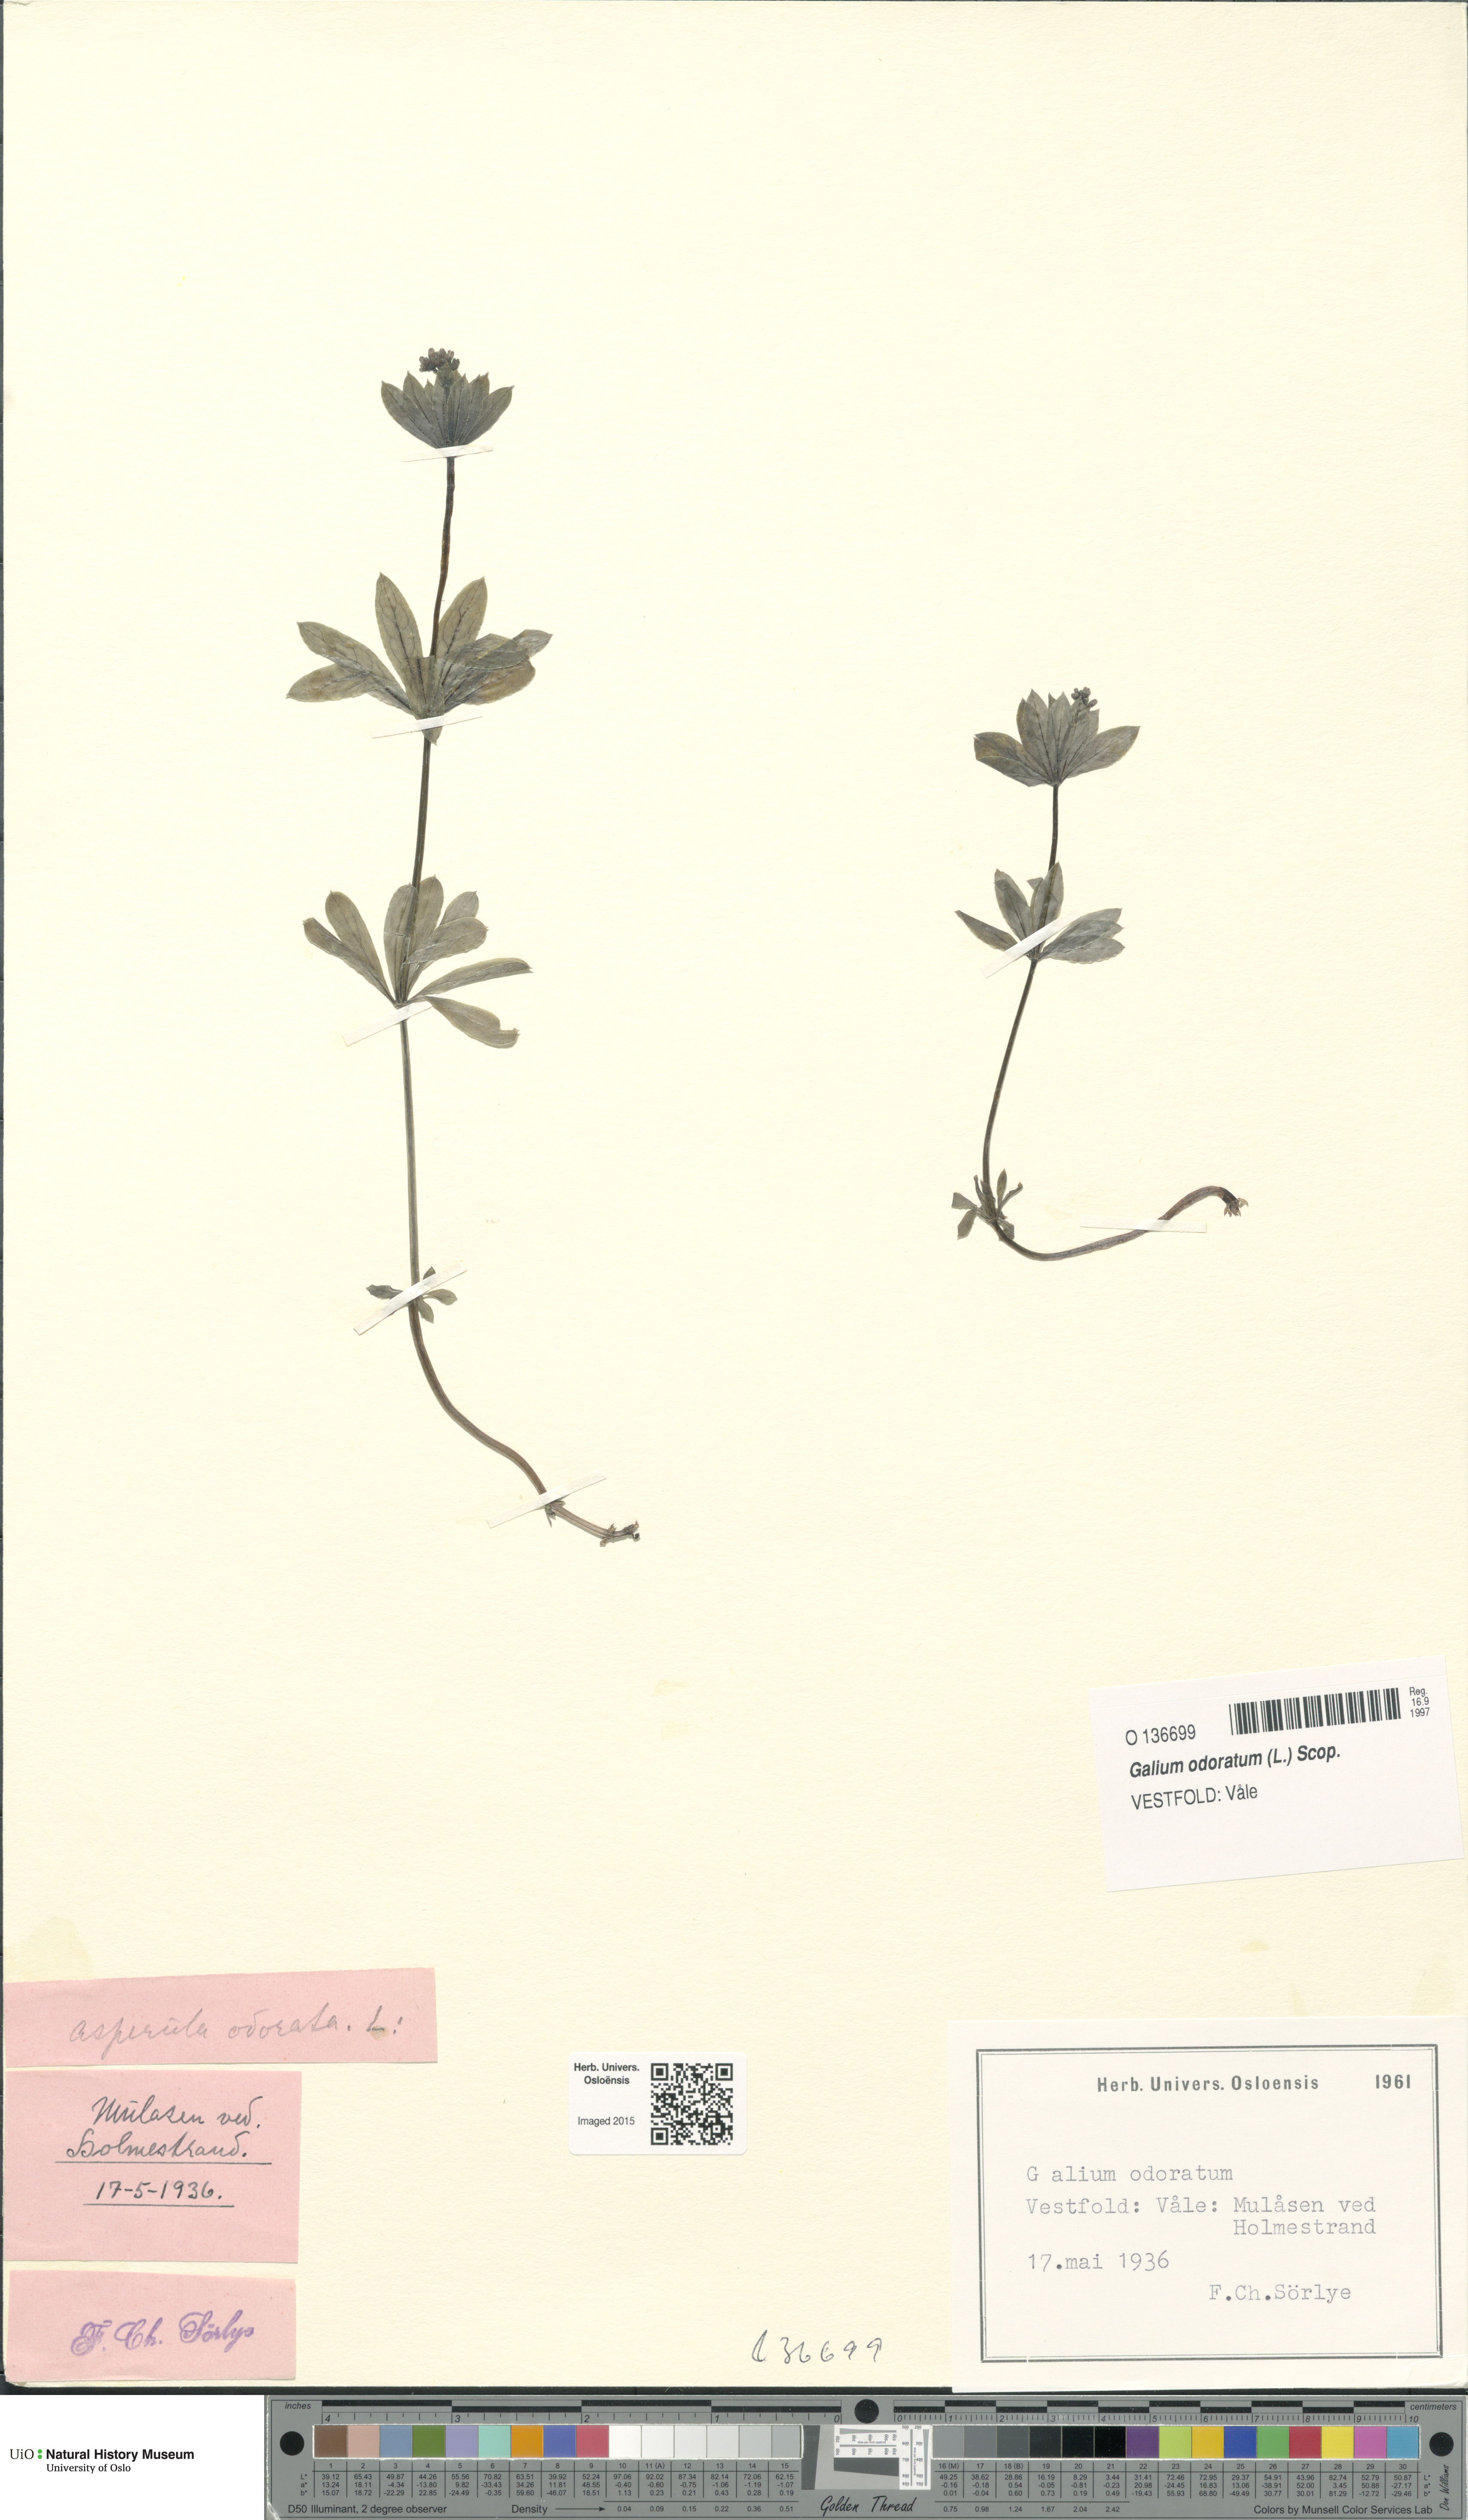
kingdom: Plantae
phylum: Tracheophyta
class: Magnoliopsida
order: Gentianales
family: Rubiaceae
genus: Galium
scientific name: Galium odoratum
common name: Sweet woodruff
